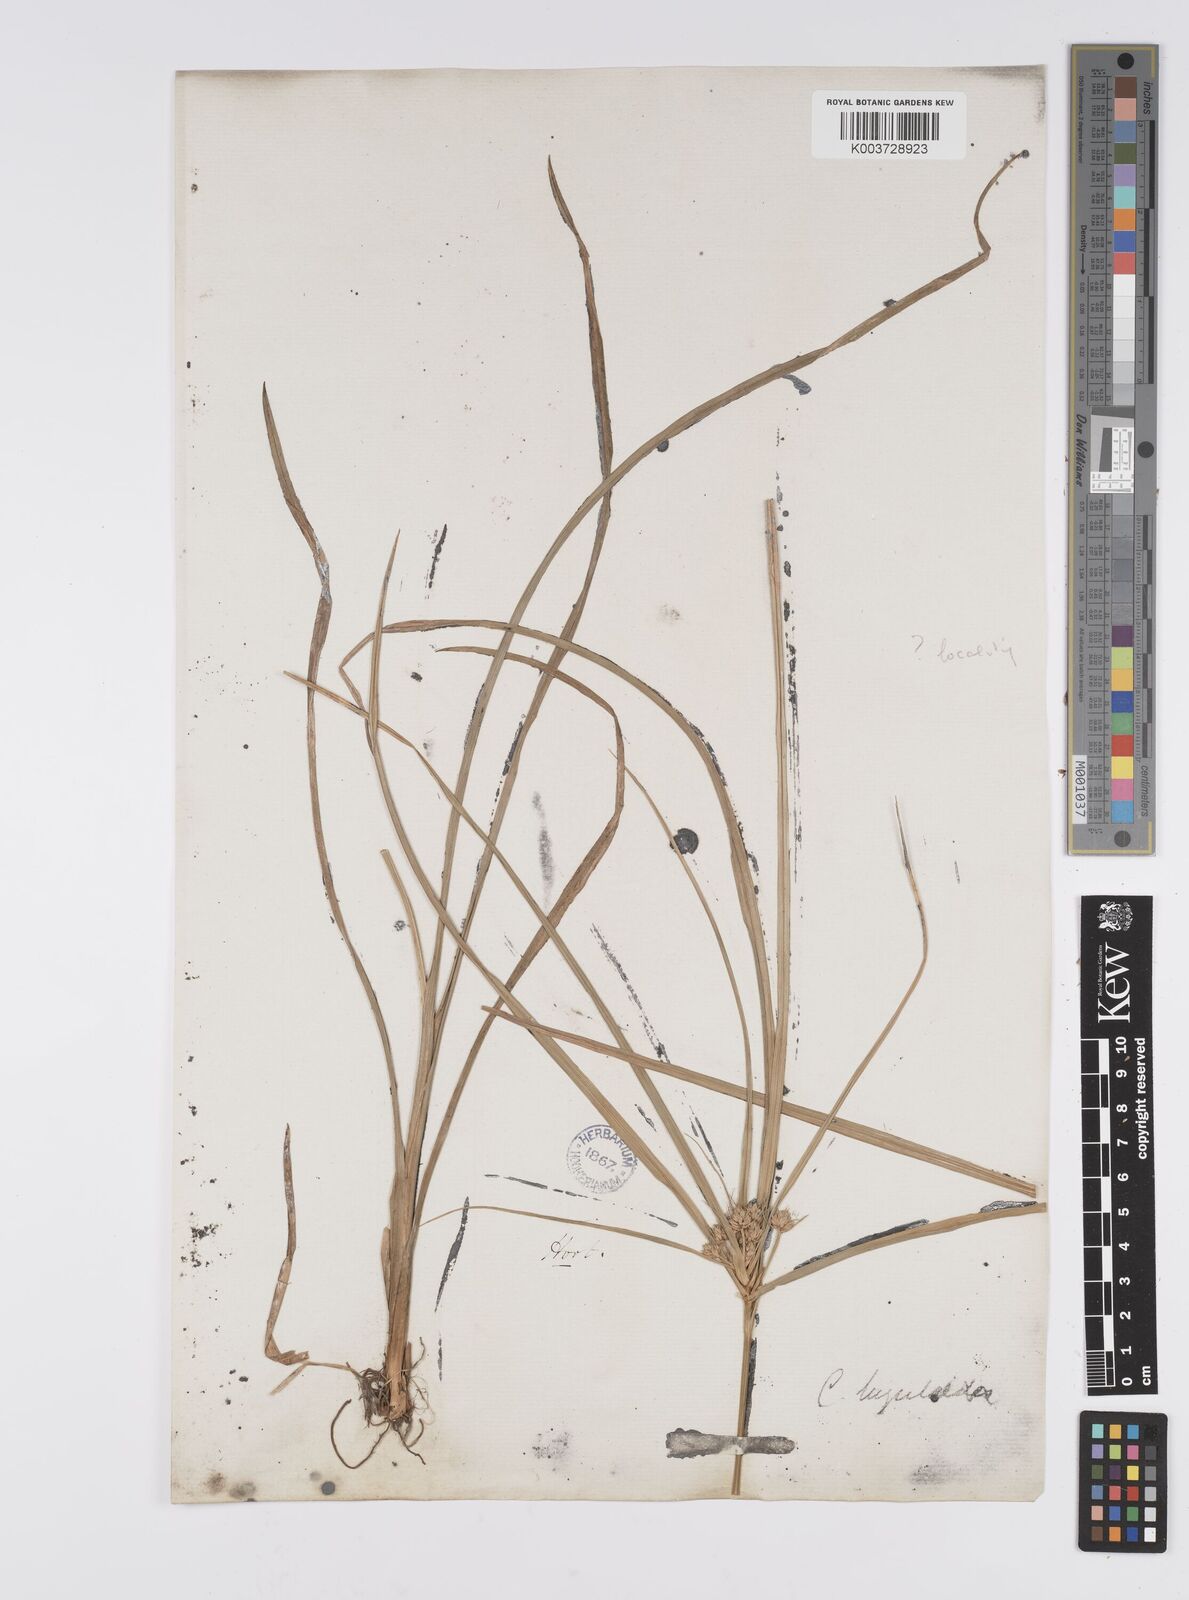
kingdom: Plantae
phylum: Tracheophyta
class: Liliopsida
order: Poales
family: Cyperaceae
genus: Cyperus
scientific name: Cyperus
